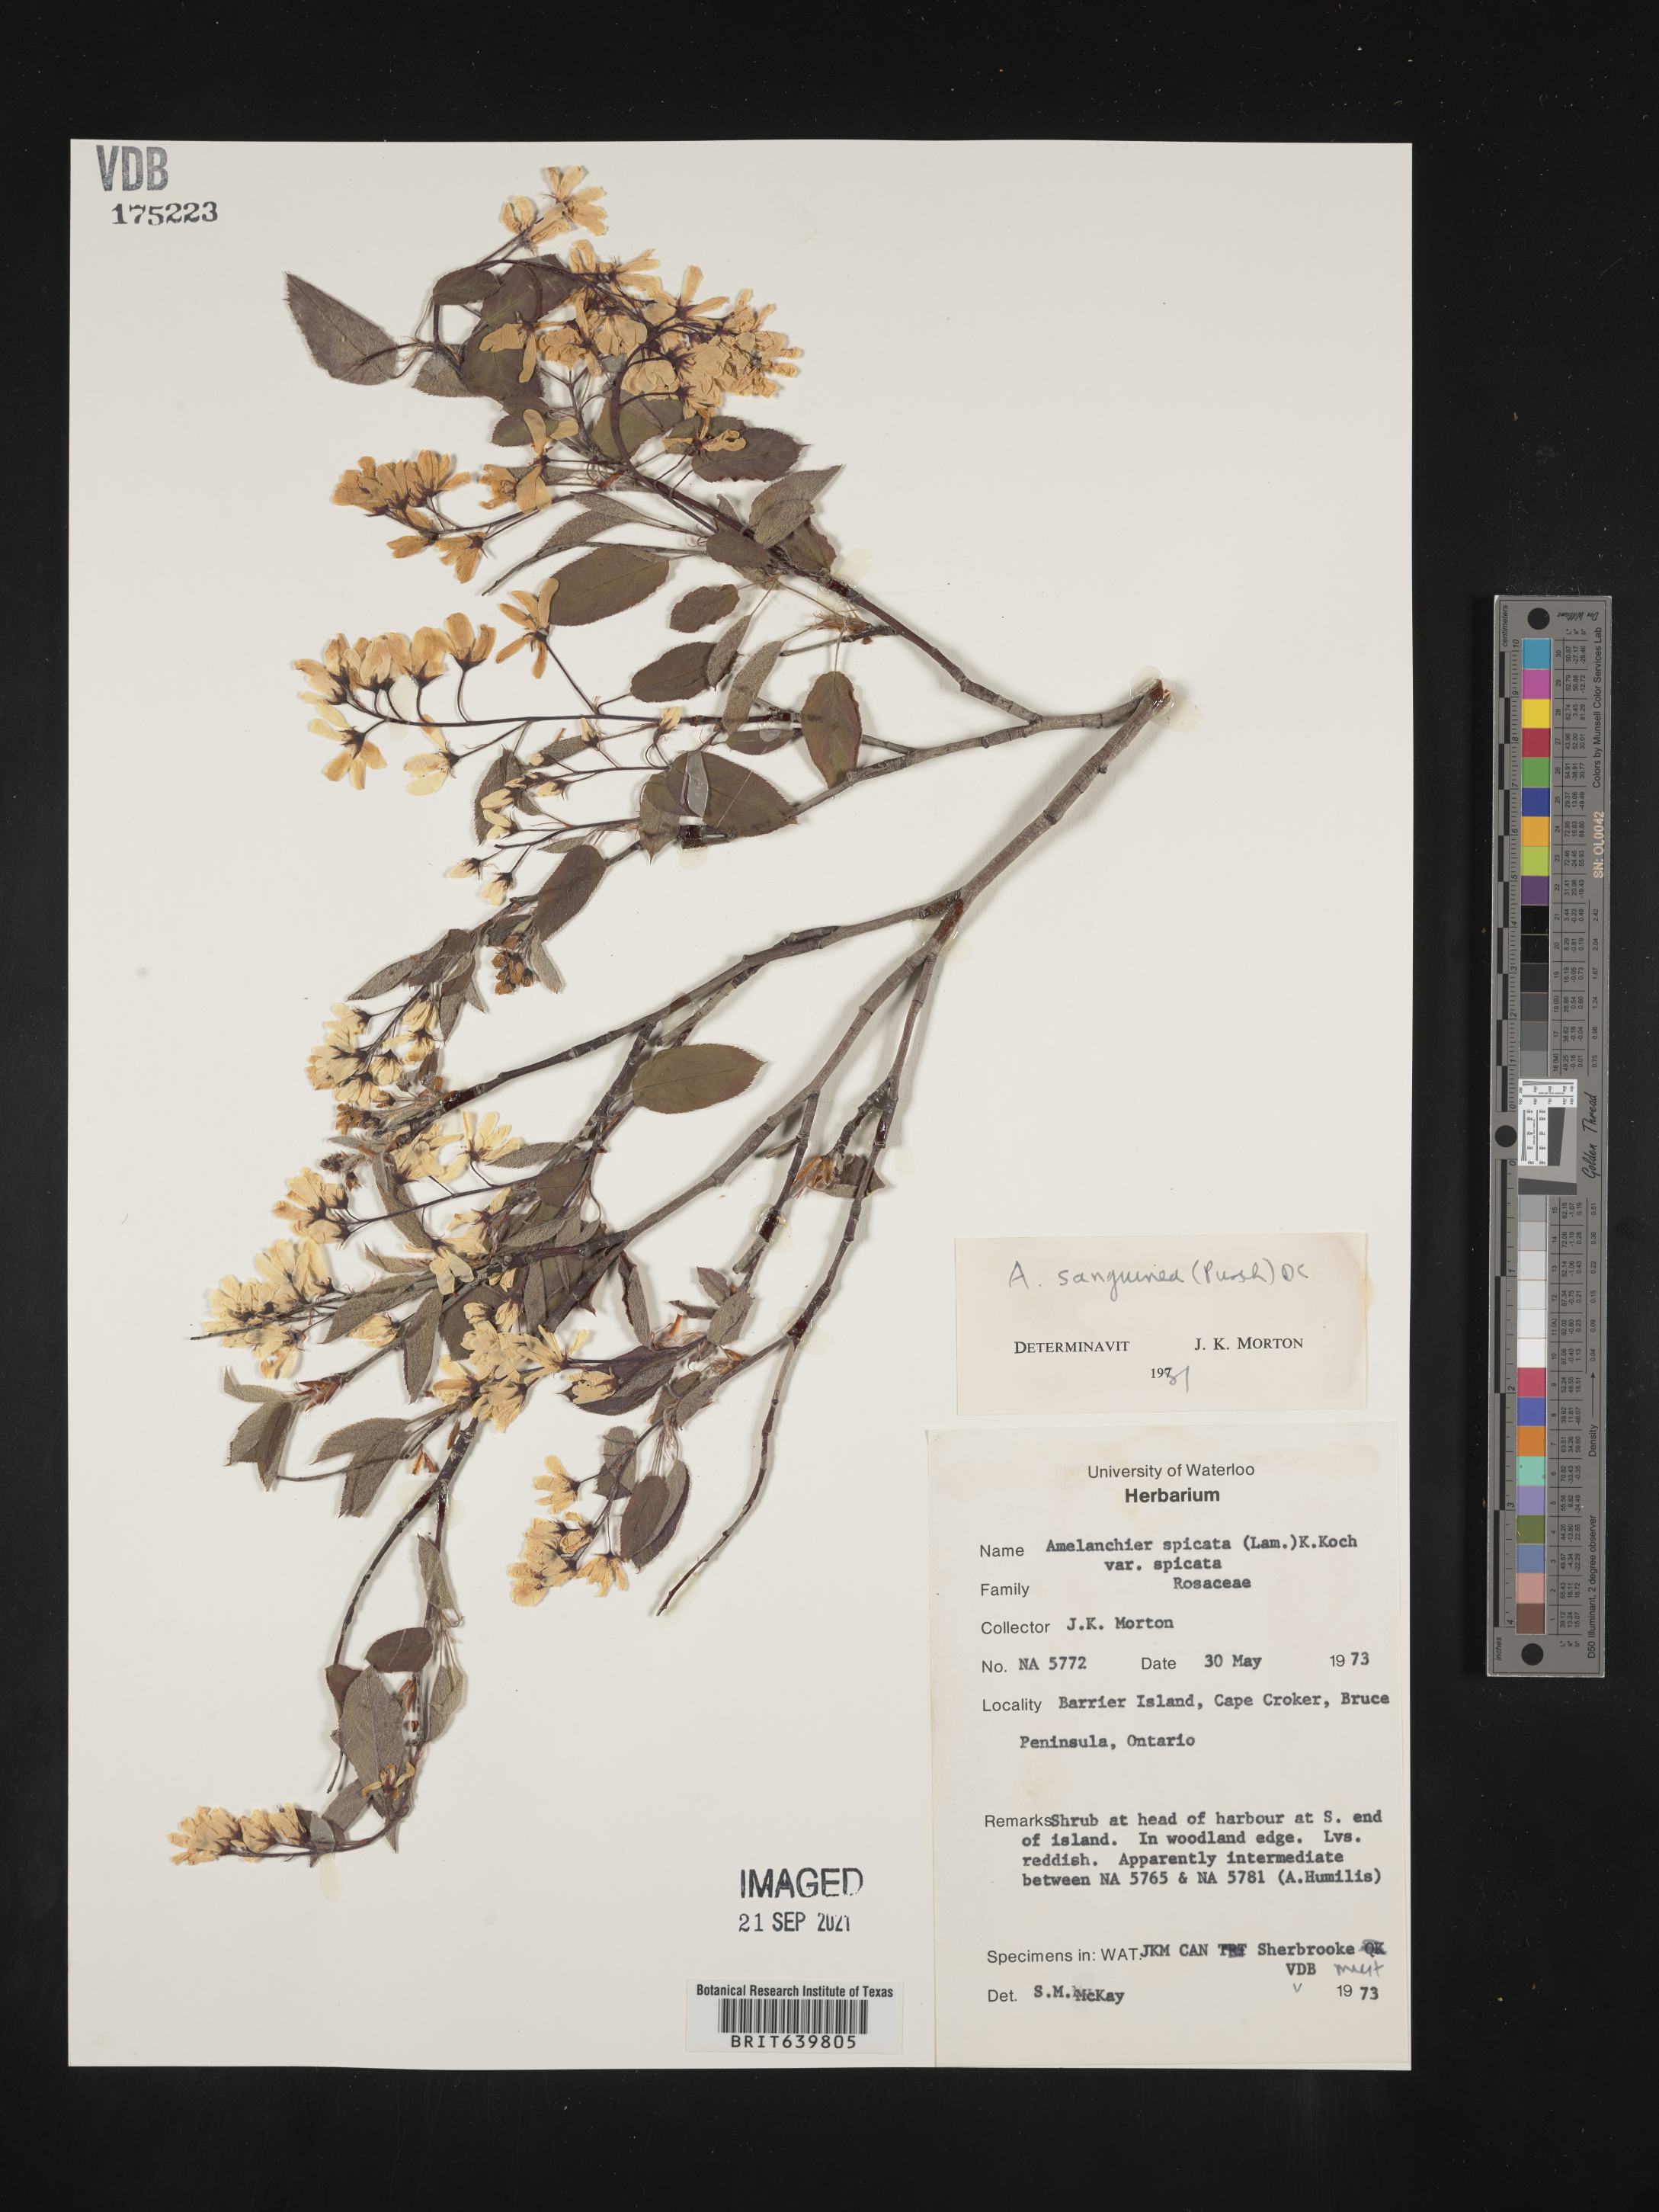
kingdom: Plantae
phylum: Tracheophyta
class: Magnoliopsida
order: Rosales
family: Rosaceae
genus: Amelanchier
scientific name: Amelanchier
